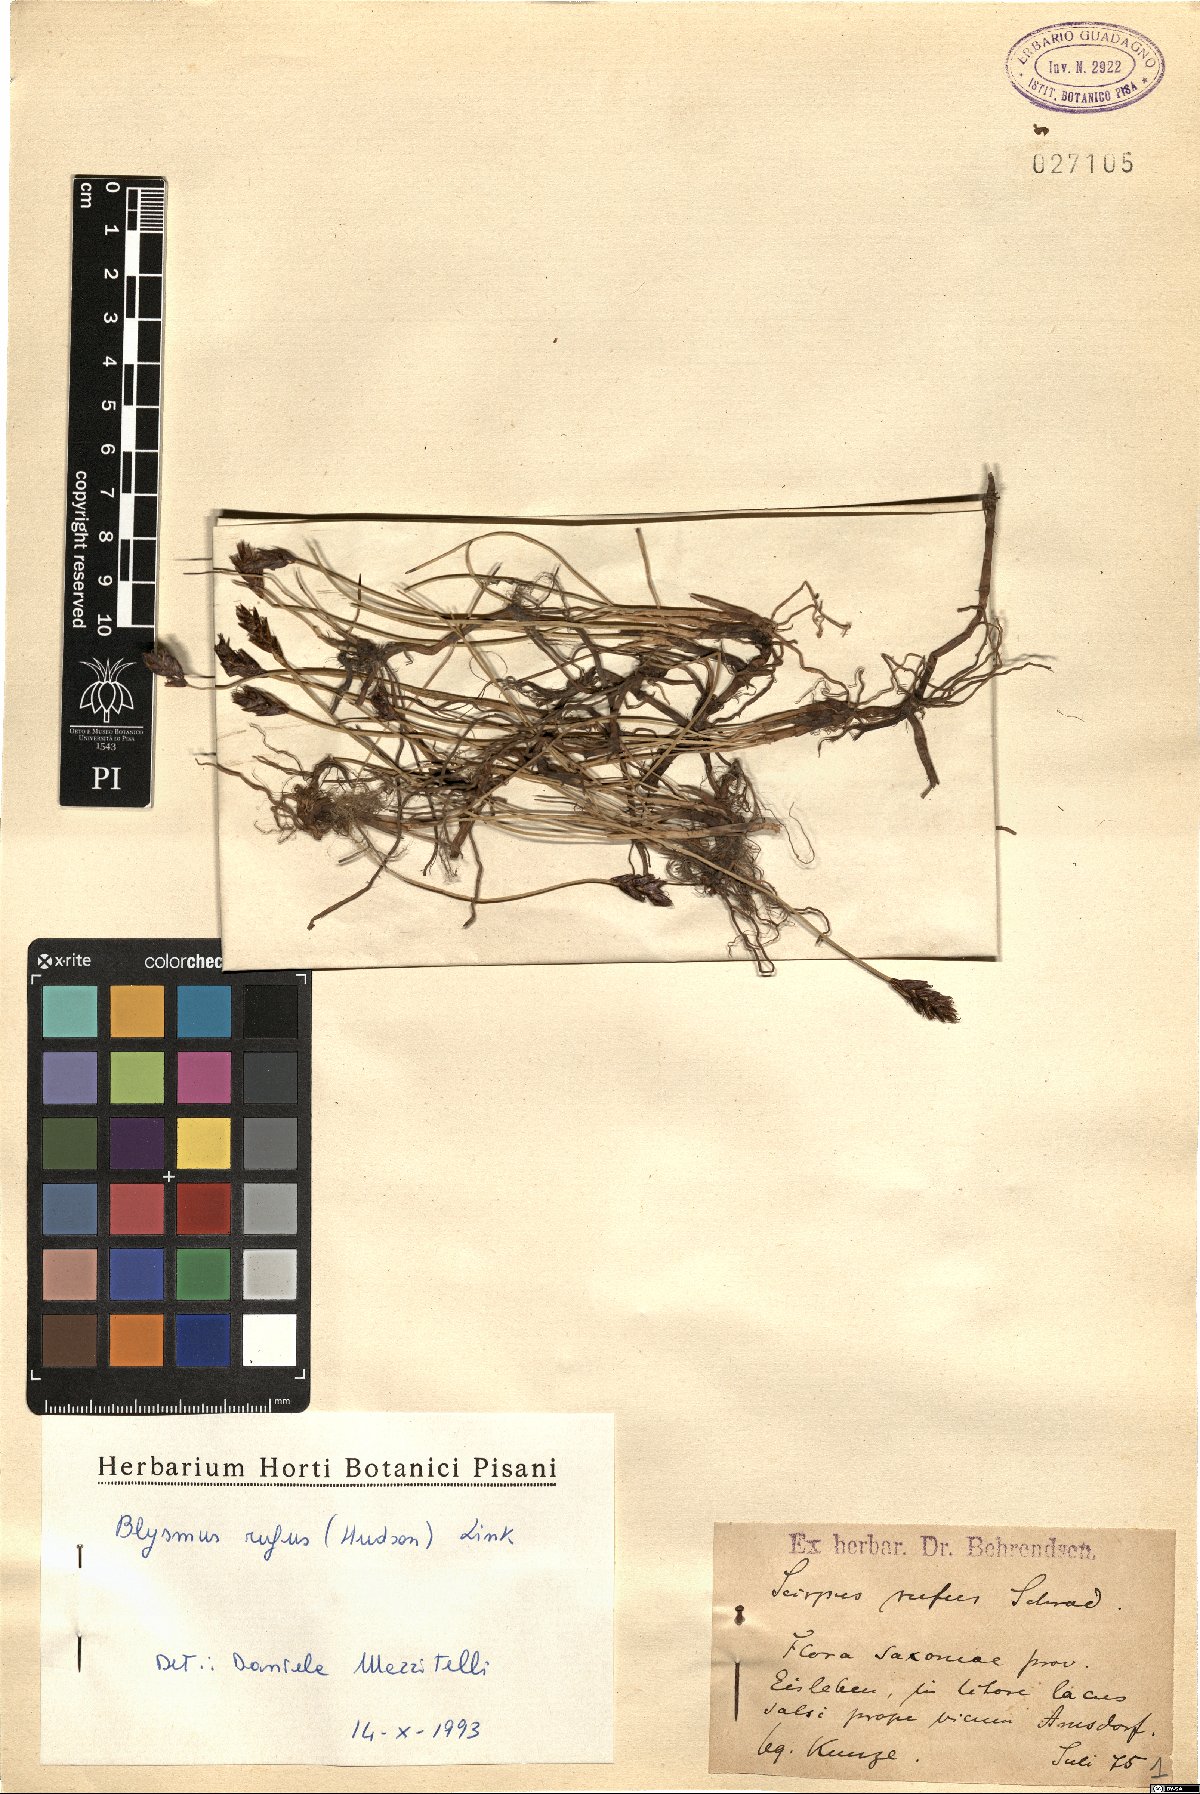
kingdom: Plantae
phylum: Tracheophyta
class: Liliopsida
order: Poales
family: Cyperaceae
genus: Blysmus
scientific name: Blysmus rufus
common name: Saltmarsh flat-sedge
